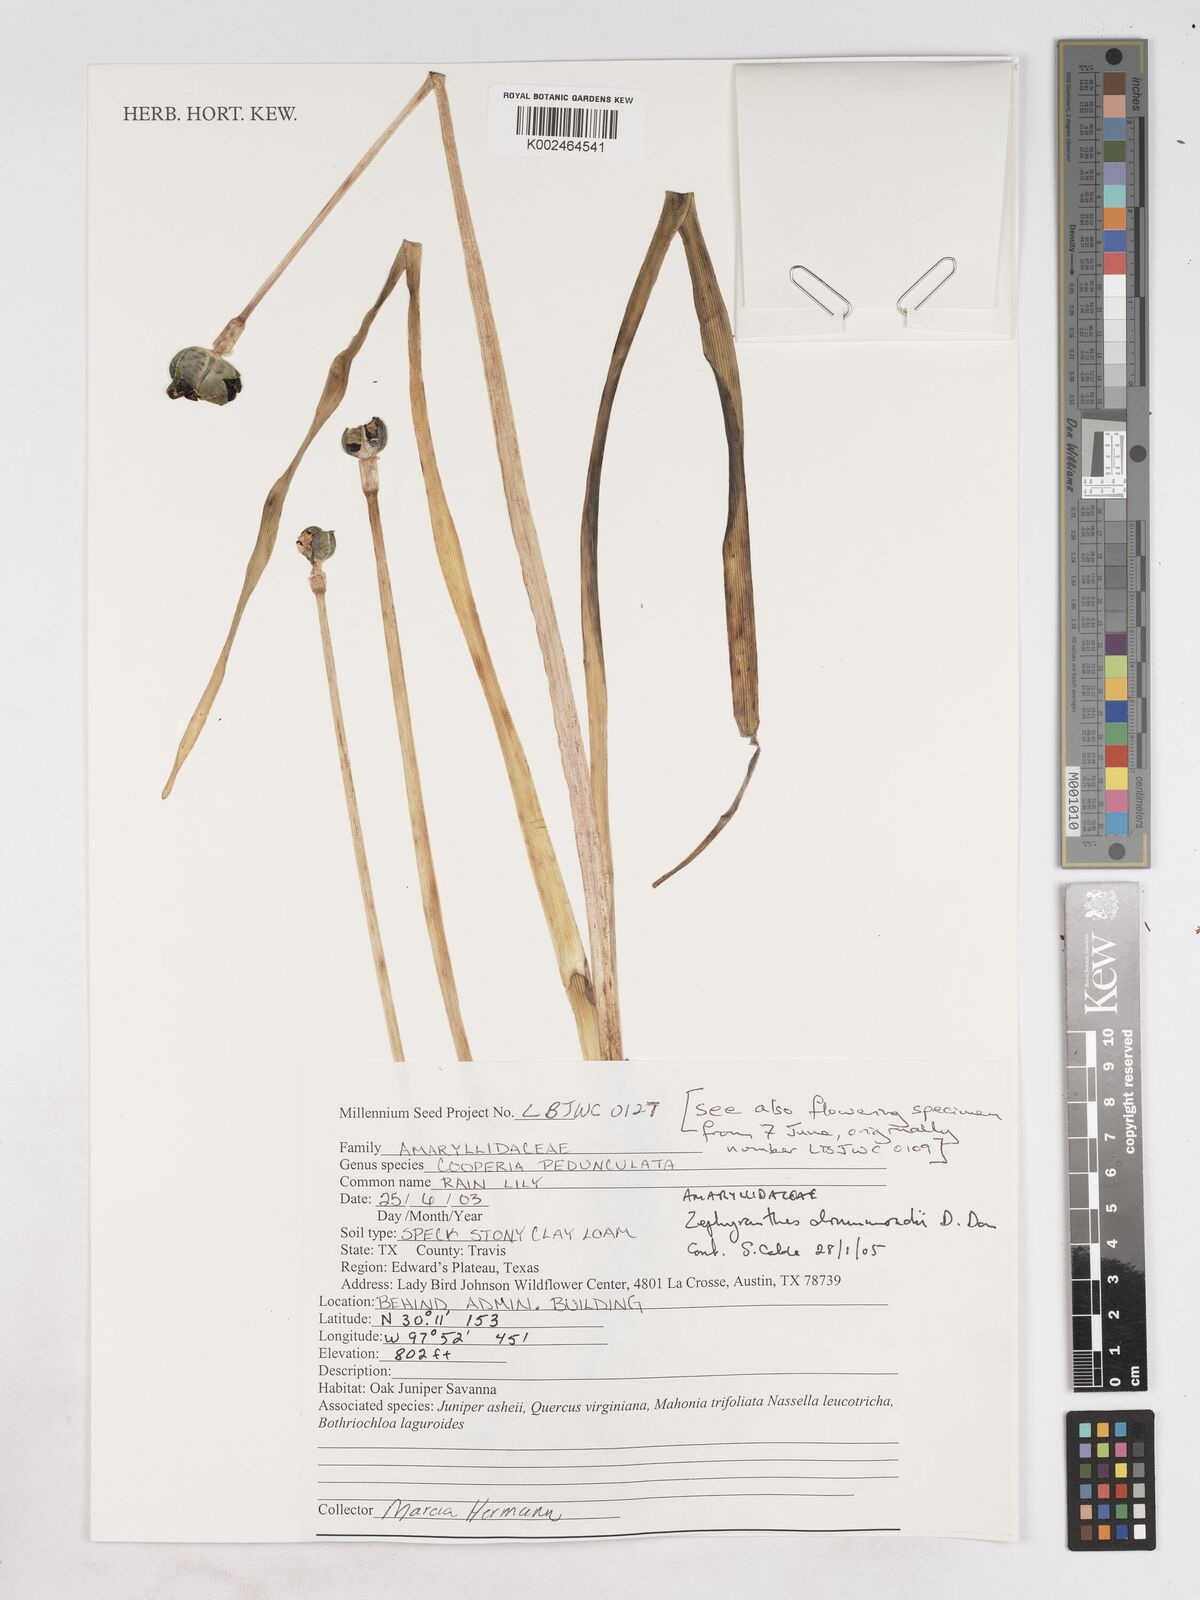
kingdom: Plantae
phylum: Tracheophyta
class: Liliopsida
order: Asparagales
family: Amaryllidaceae
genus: Zephyranthes
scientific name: Zephyranthes drummondii
